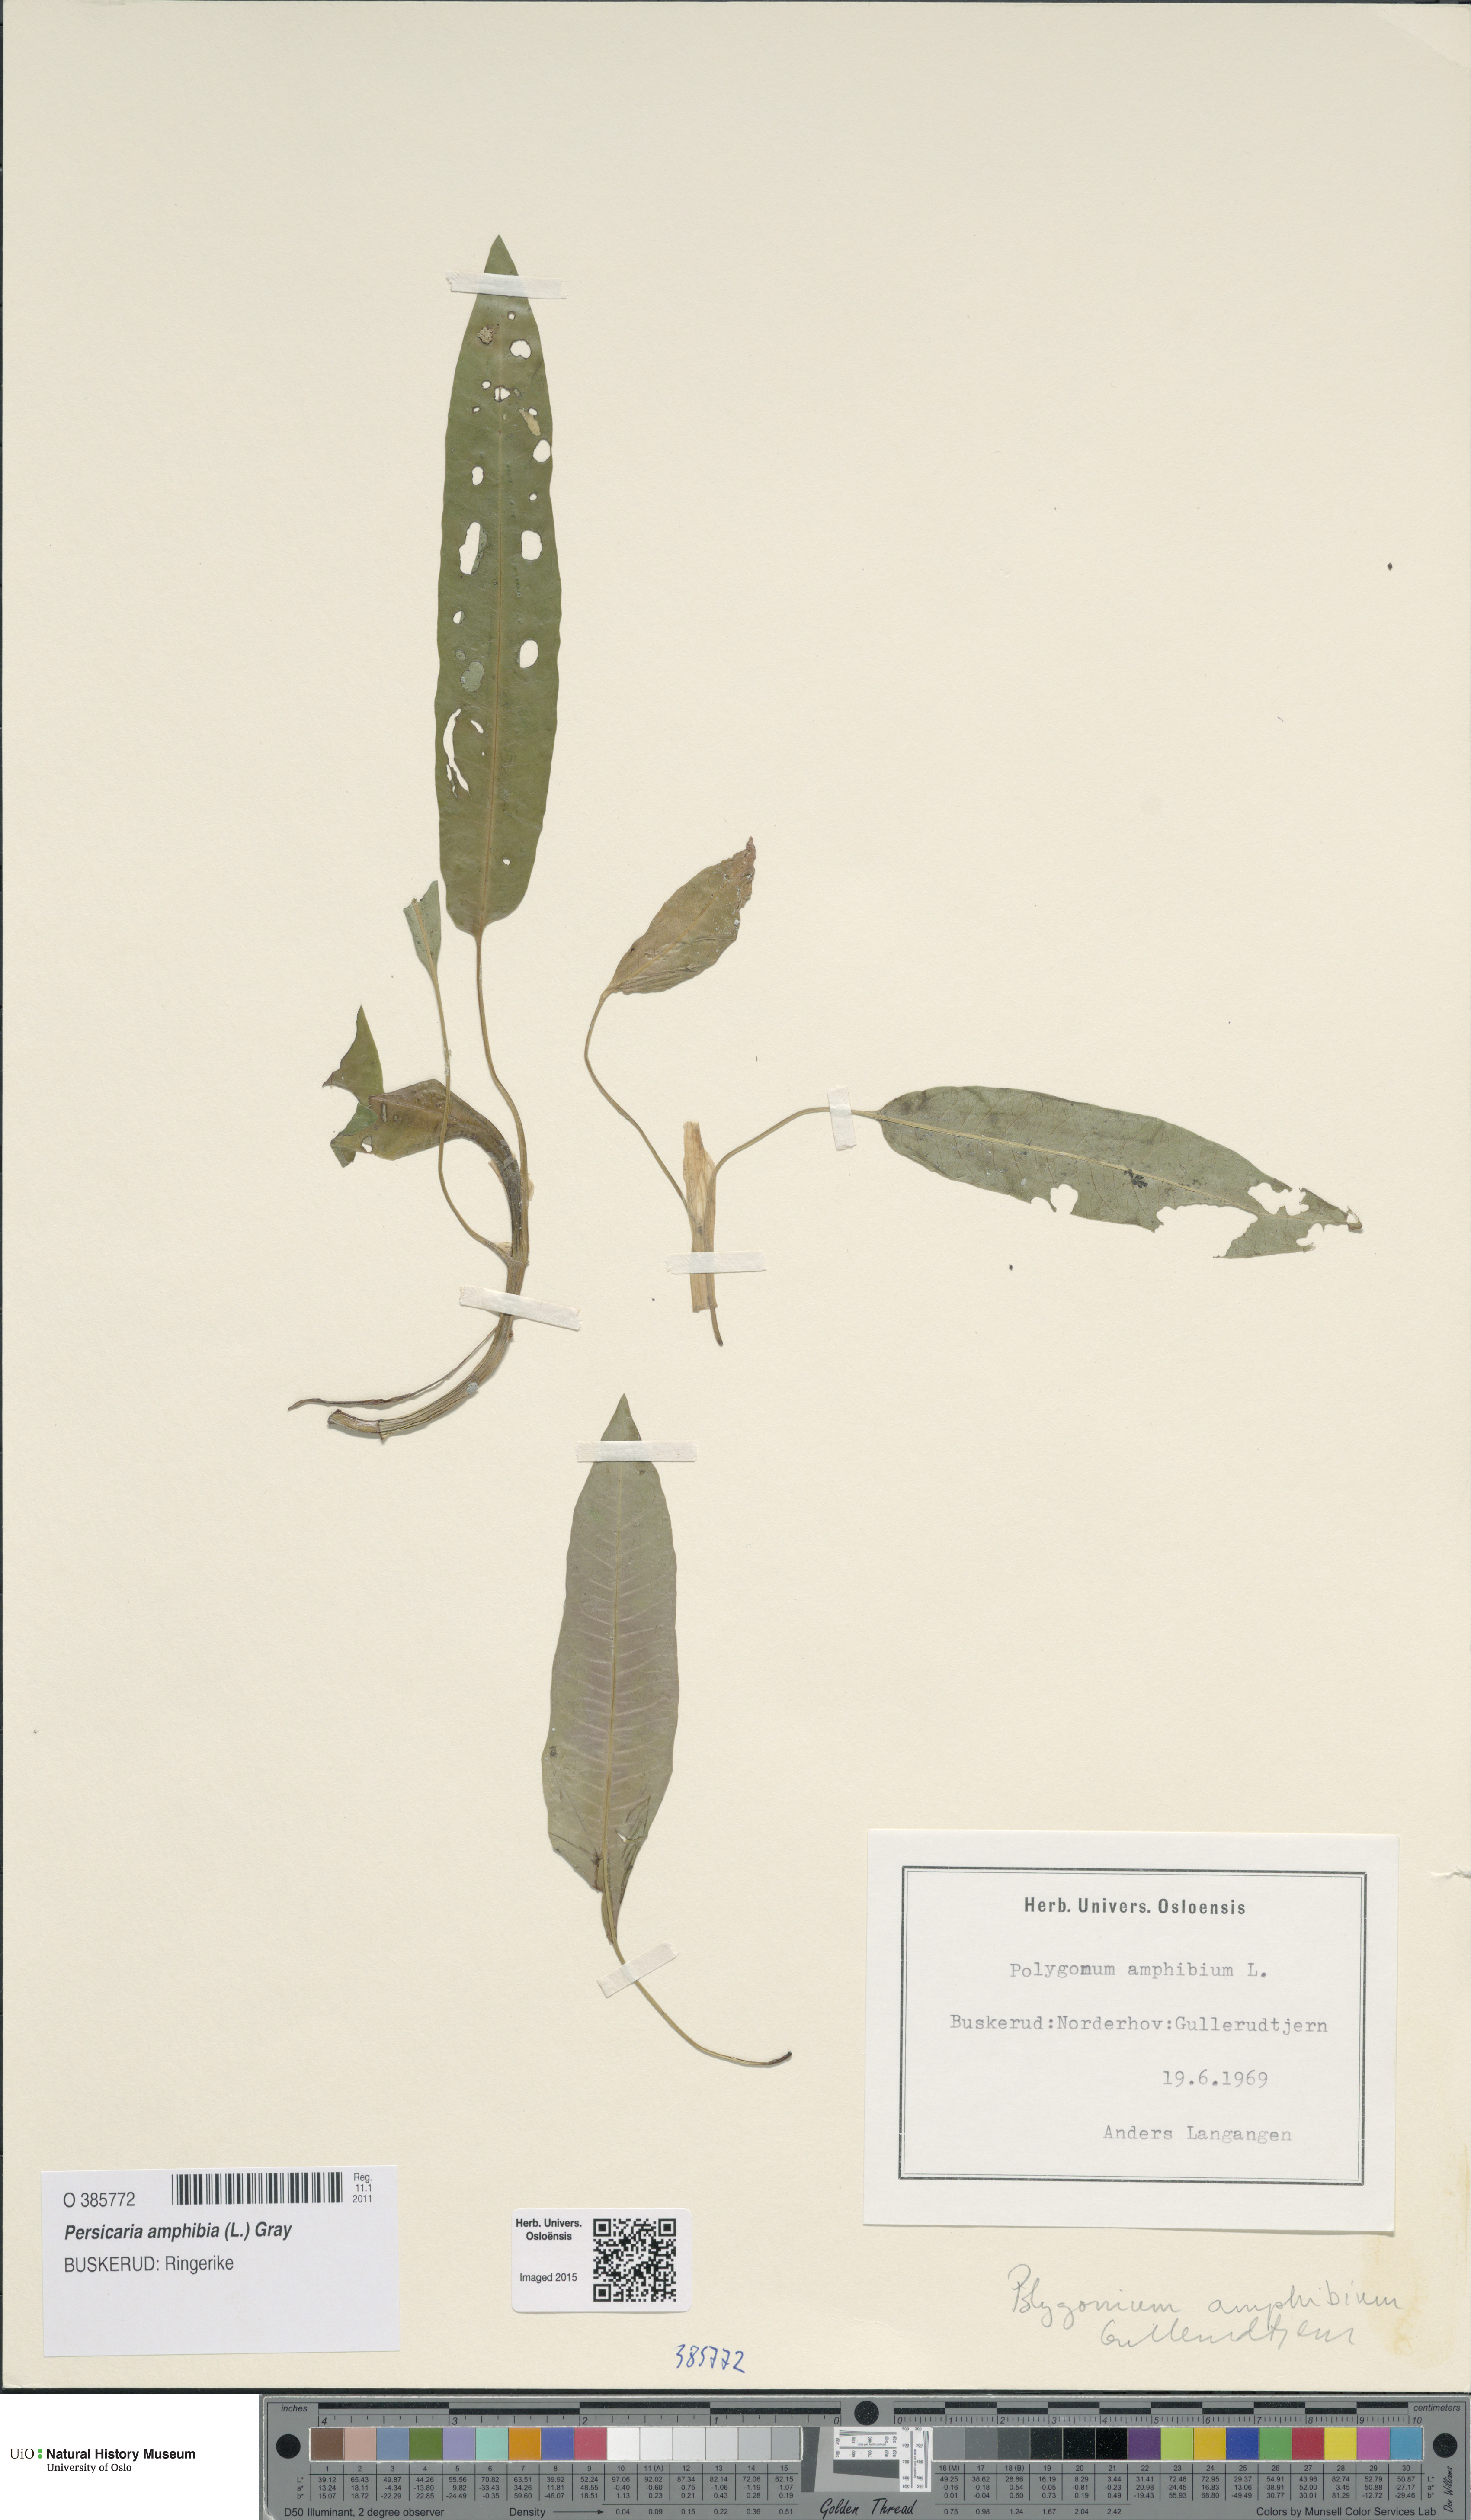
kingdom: Plantae
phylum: Tracheophyta
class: Magnoliopsida
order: Caryophyllales
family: Polygonaceae
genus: Persicaria
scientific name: Persicaria amphibia
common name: Amphibious bistort
